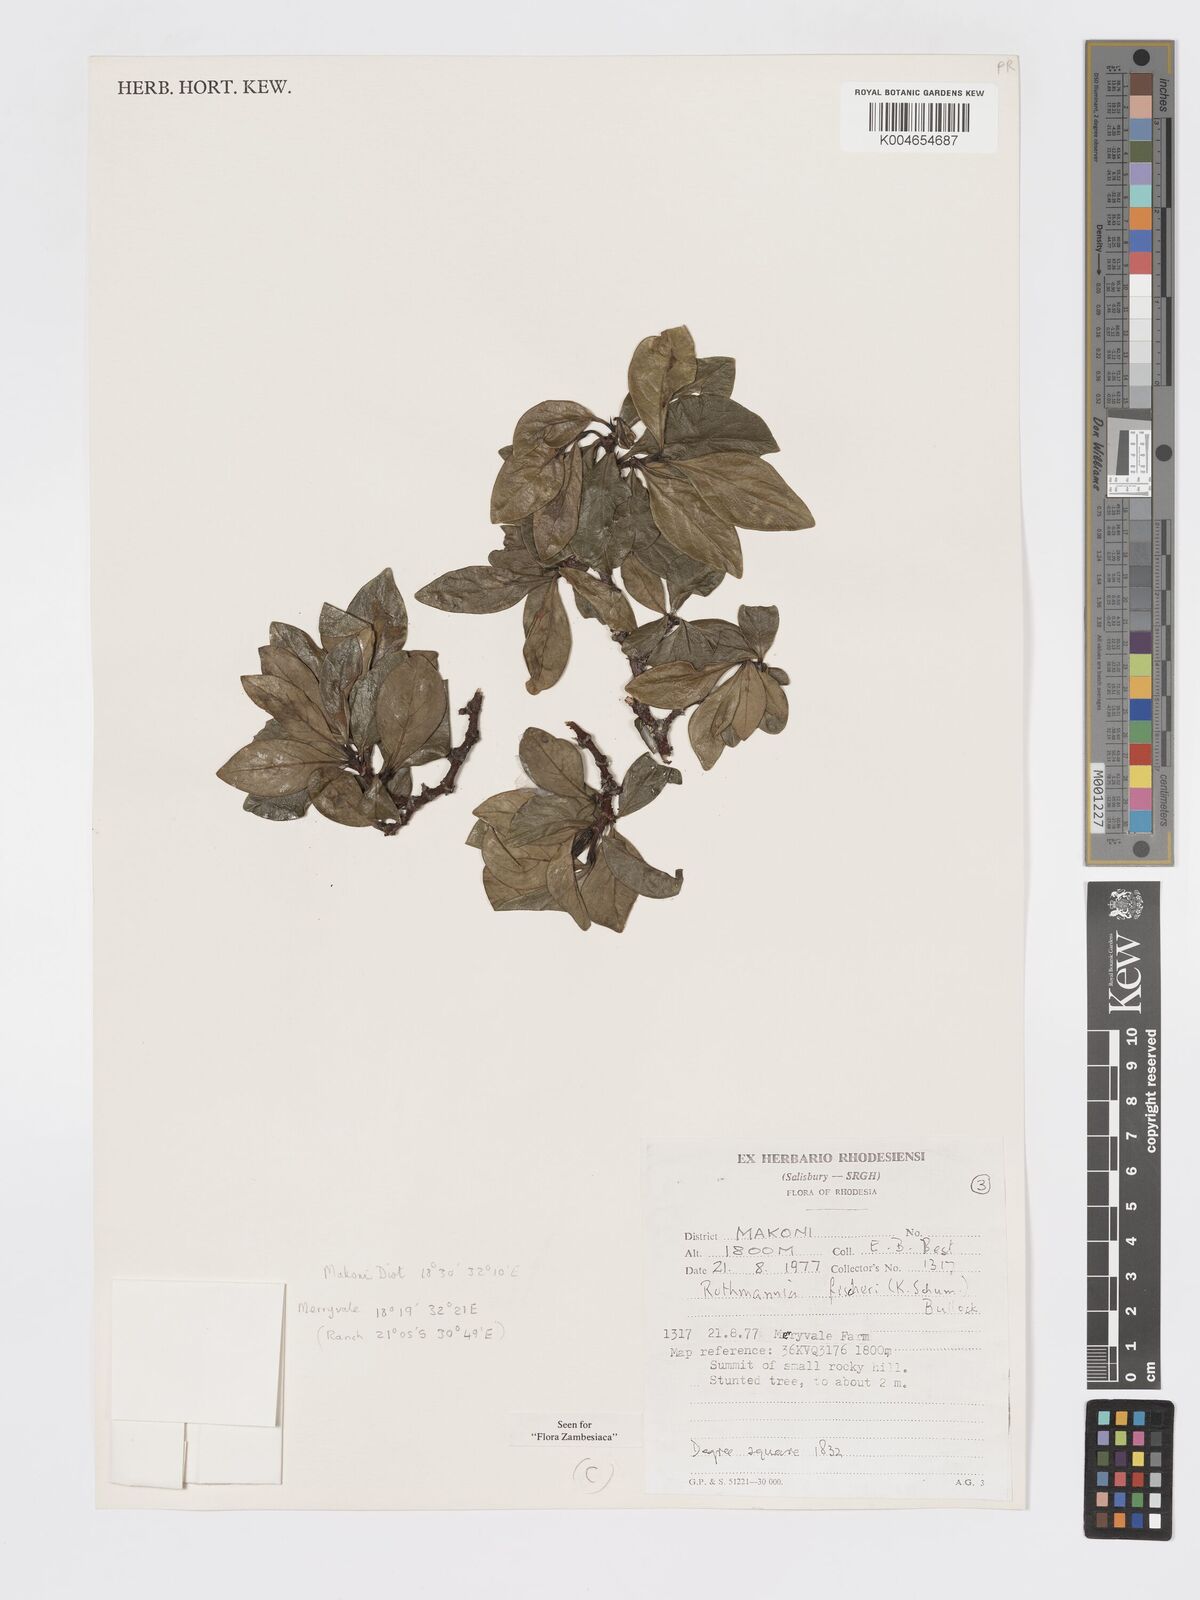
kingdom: Plantae
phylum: Tracheophyta
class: Magnoliopsida
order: Gentianales
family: Rubiaceae
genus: Rothmannia
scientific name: Rothmannia fischeri
